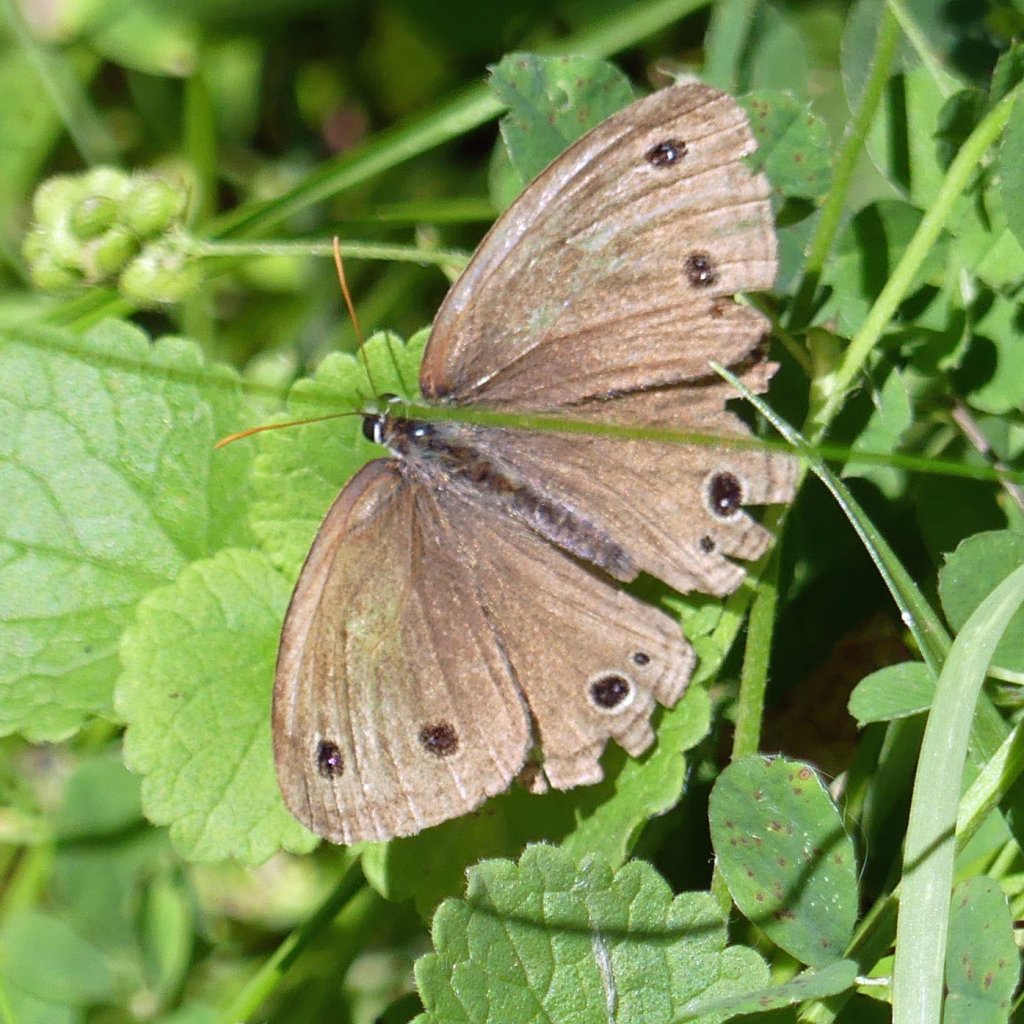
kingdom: Animalia
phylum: Arthropoda
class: Insecta
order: Lepidoptera
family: Nymphalidae
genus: Euptychia
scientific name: Euptychia cymela
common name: Little Wood Satyr
